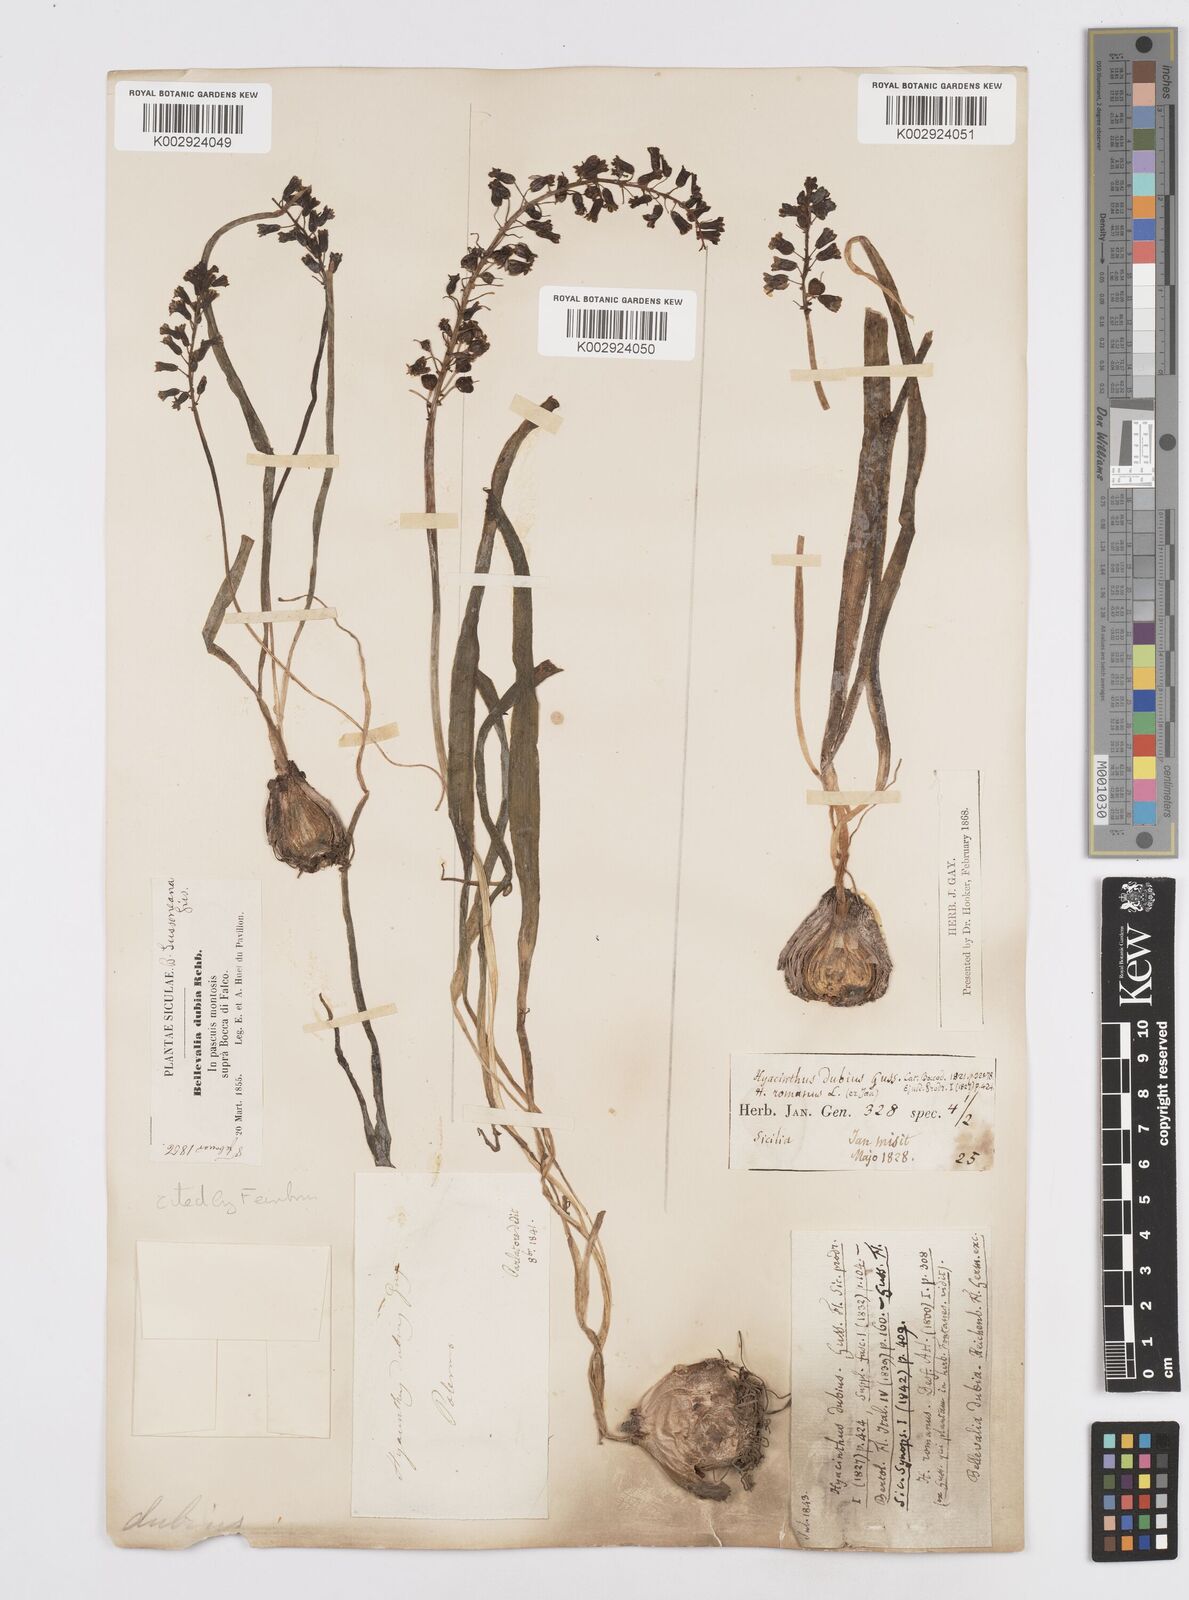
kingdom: Plantae
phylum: Tracheophyta
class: Liliopsida
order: Asparagales
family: Asparagaceae
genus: Bellevalia
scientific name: Bellevalia dubia
